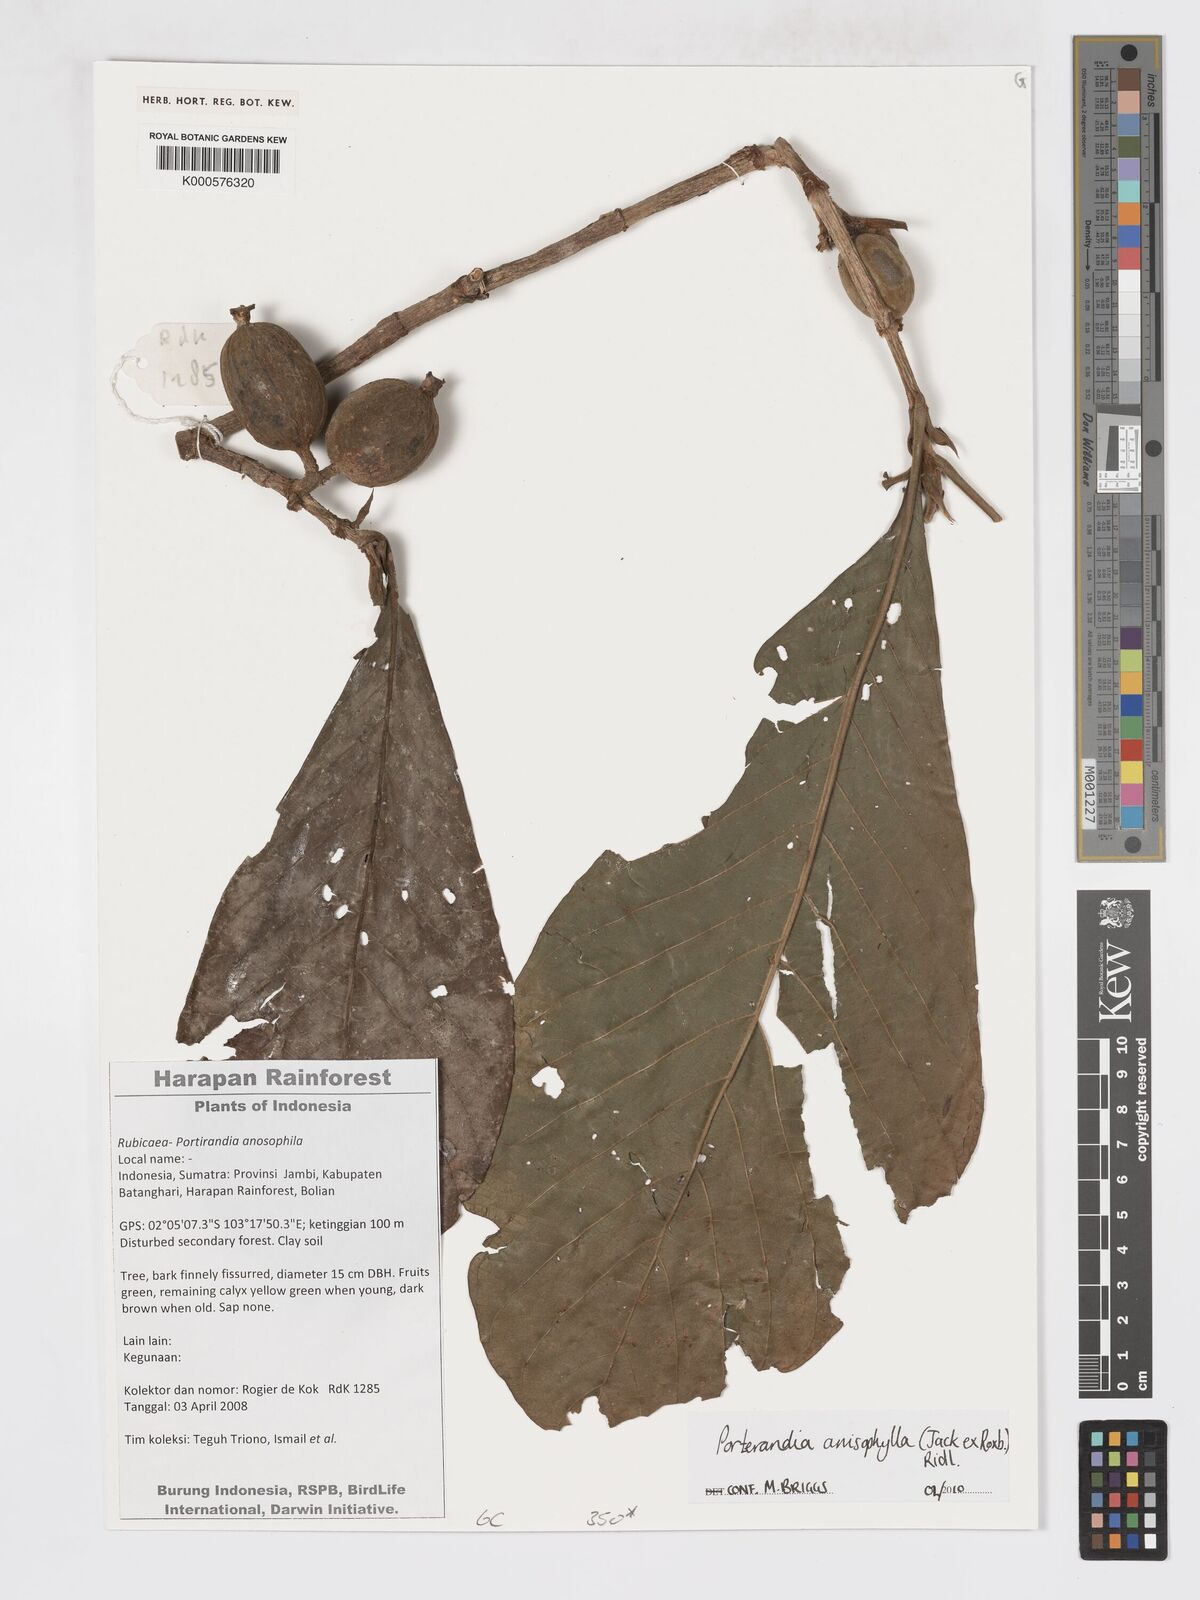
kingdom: Plantae
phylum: Tracheophyta
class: Magnoliopsida
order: Gentianales
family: Rubiaceae
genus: Porterandia
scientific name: Porterandia anisophylla
